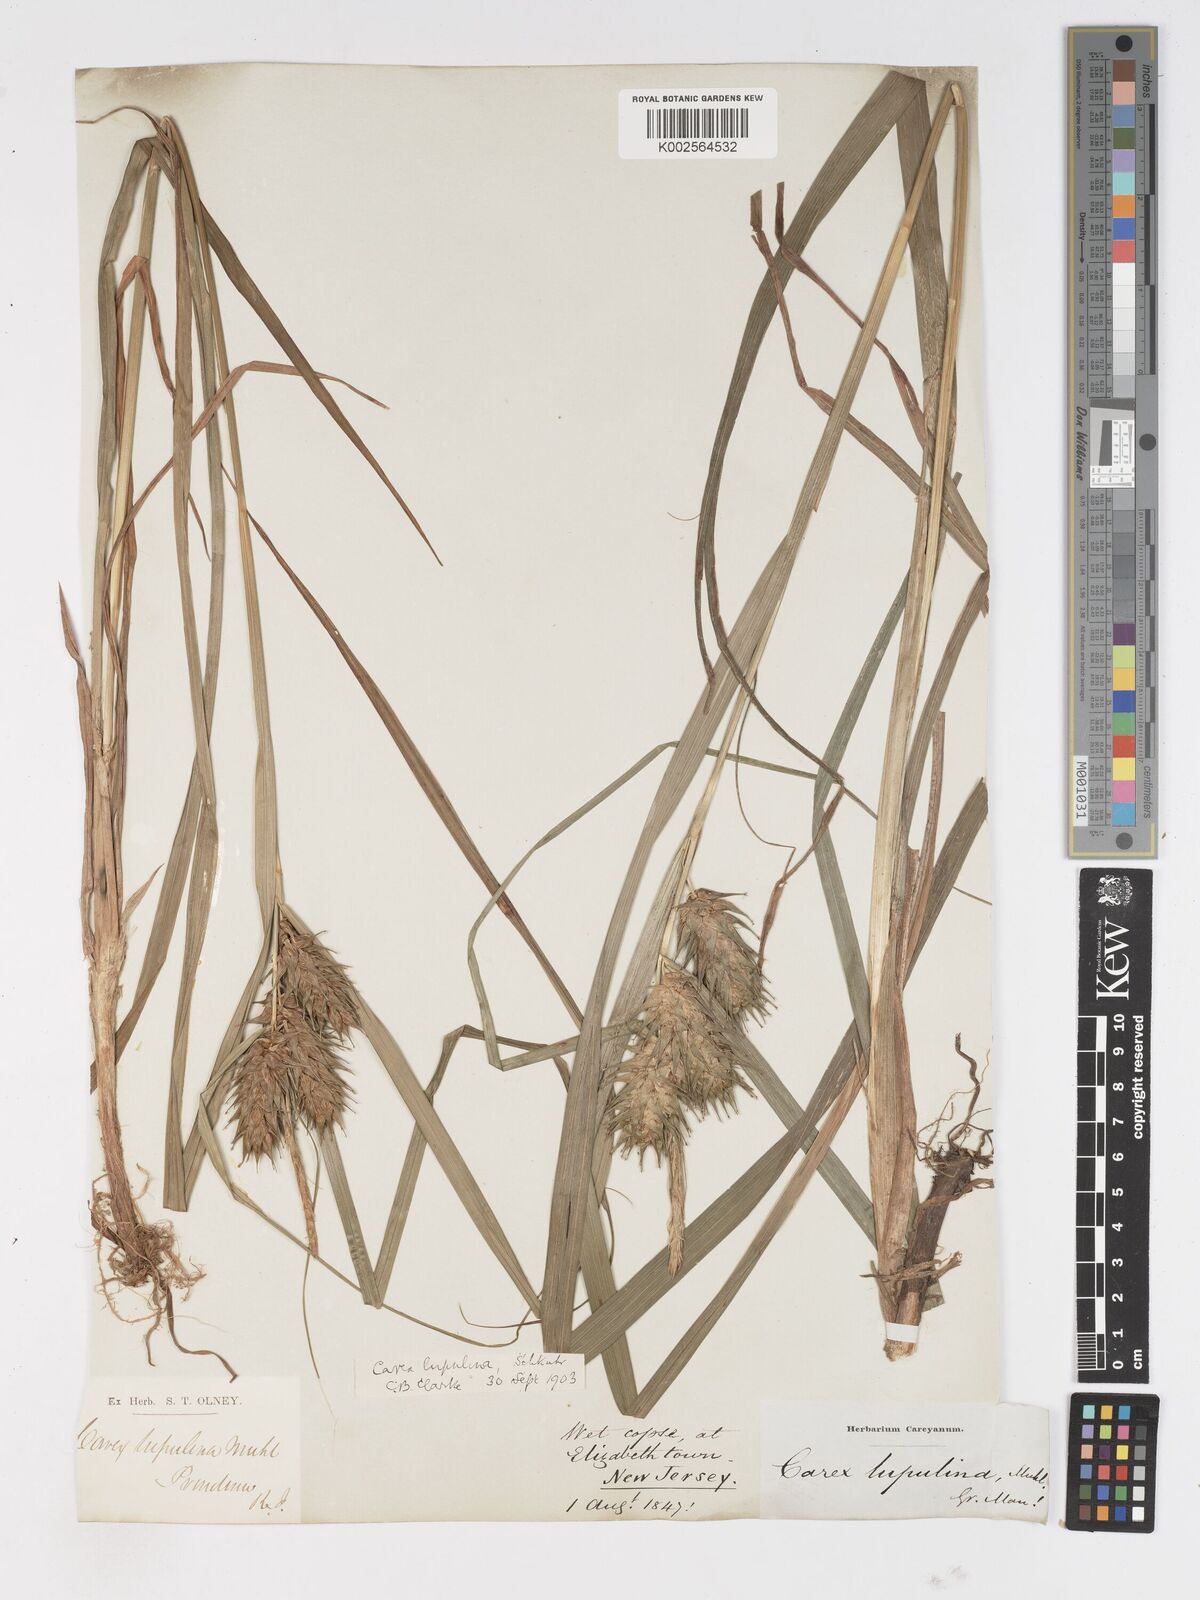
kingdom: Plantae
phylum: Tracheophyta
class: Liliopsida
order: Poales
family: Cyperaceae
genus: Carex
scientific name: Carex lupulina
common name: Hop sedge
